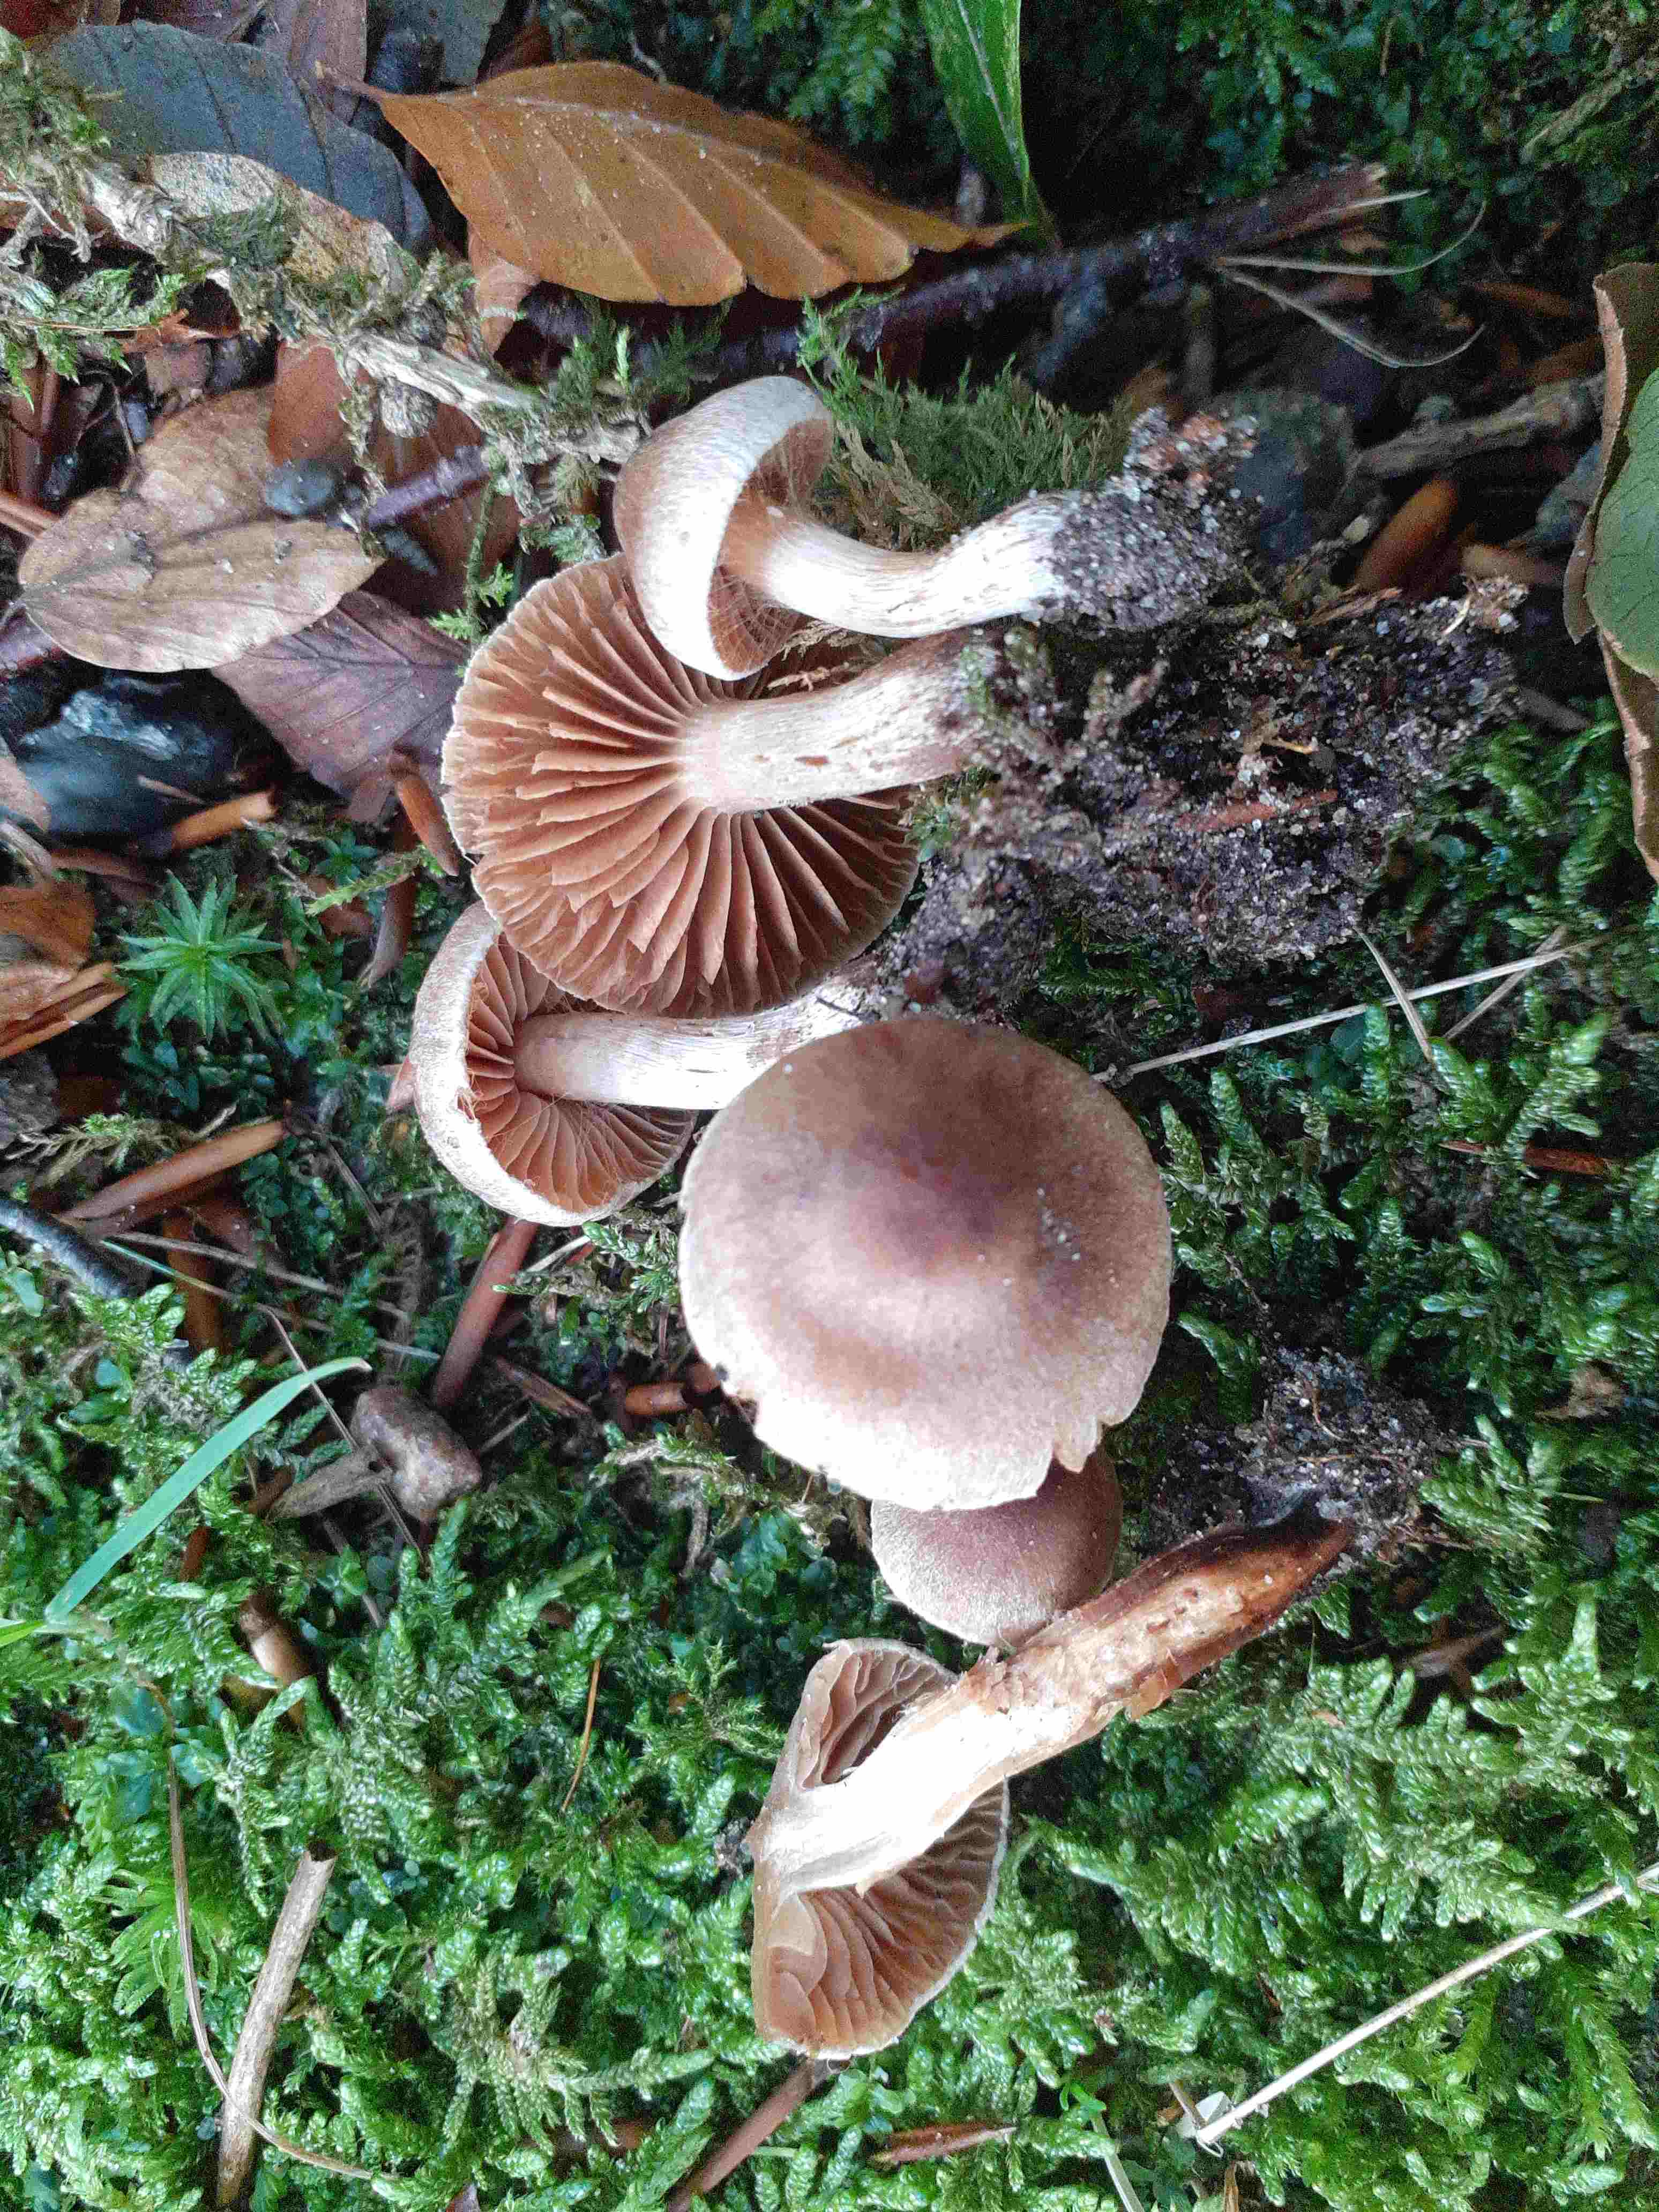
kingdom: Fungi
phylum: Basidiomycota
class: Agaricomycetes
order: Agaricales
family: Cortinariaceae
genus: Cortinarius
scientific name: Cortinarius epipurrus
